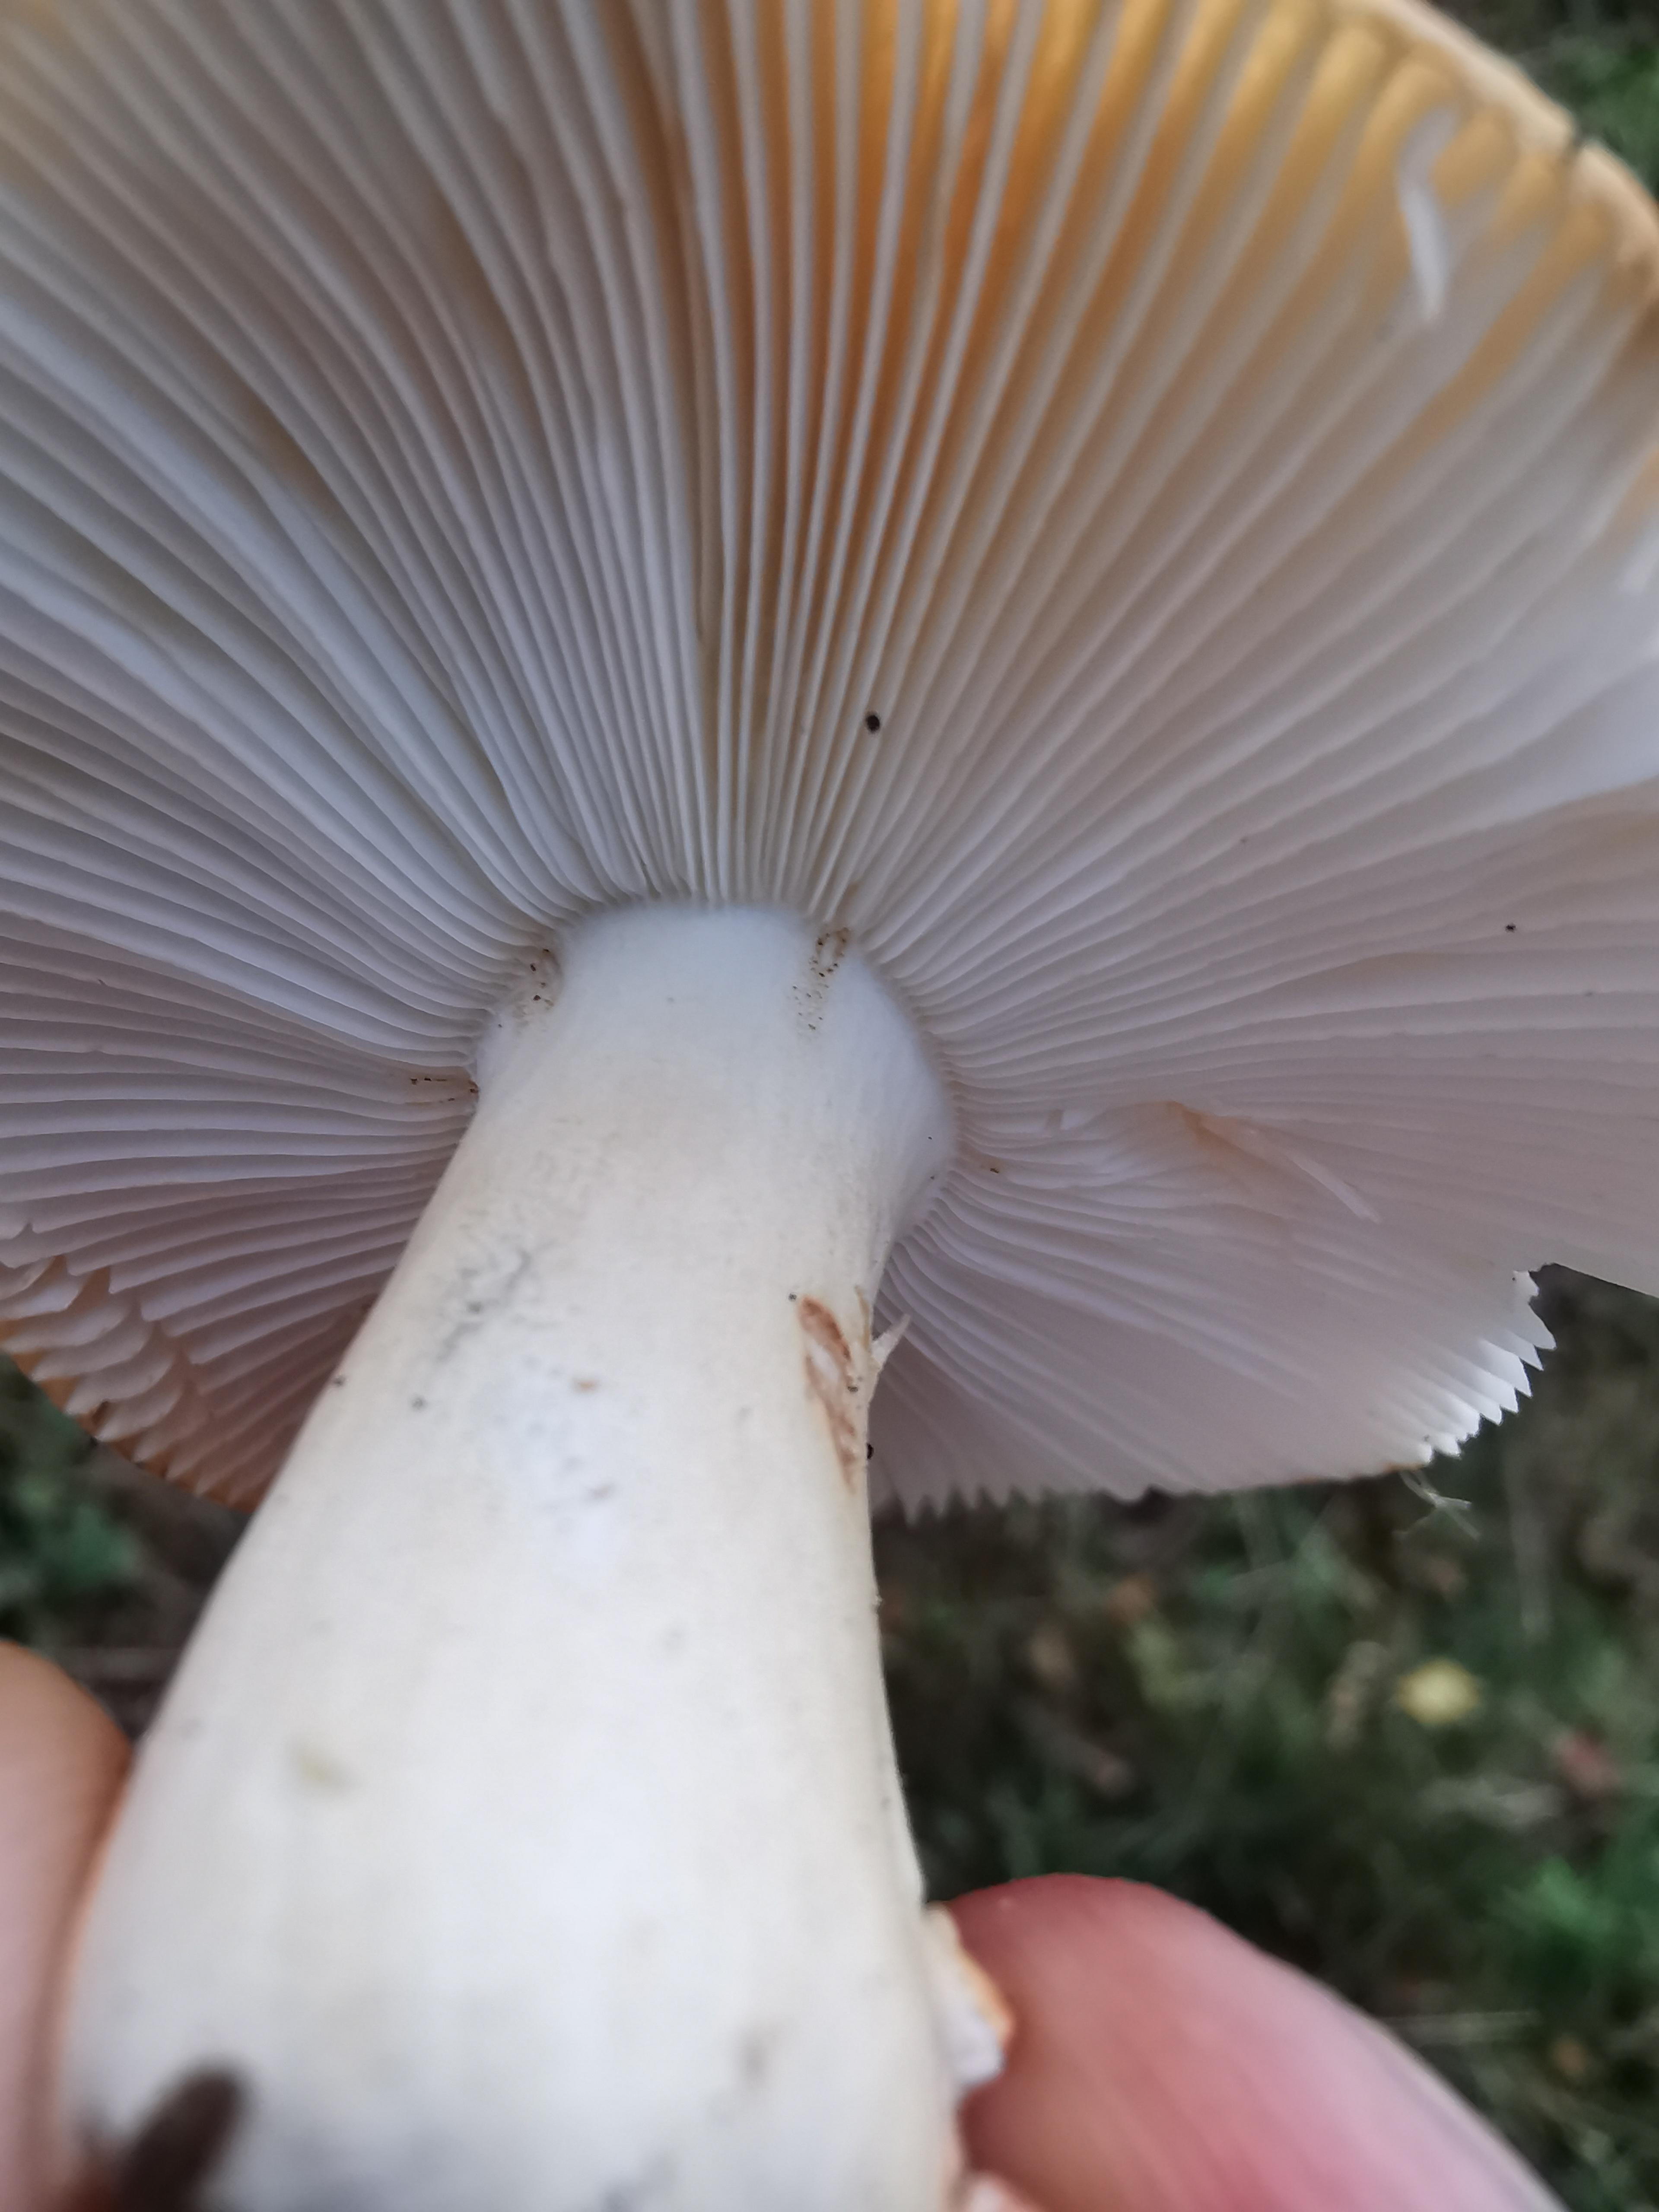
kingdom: Fungi
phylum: Basidiomycota
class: Agaricomycetes
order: Russulales
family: Russulaceae
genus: Russula
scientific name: Russula ochroleuca
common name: okkergul skørhat
